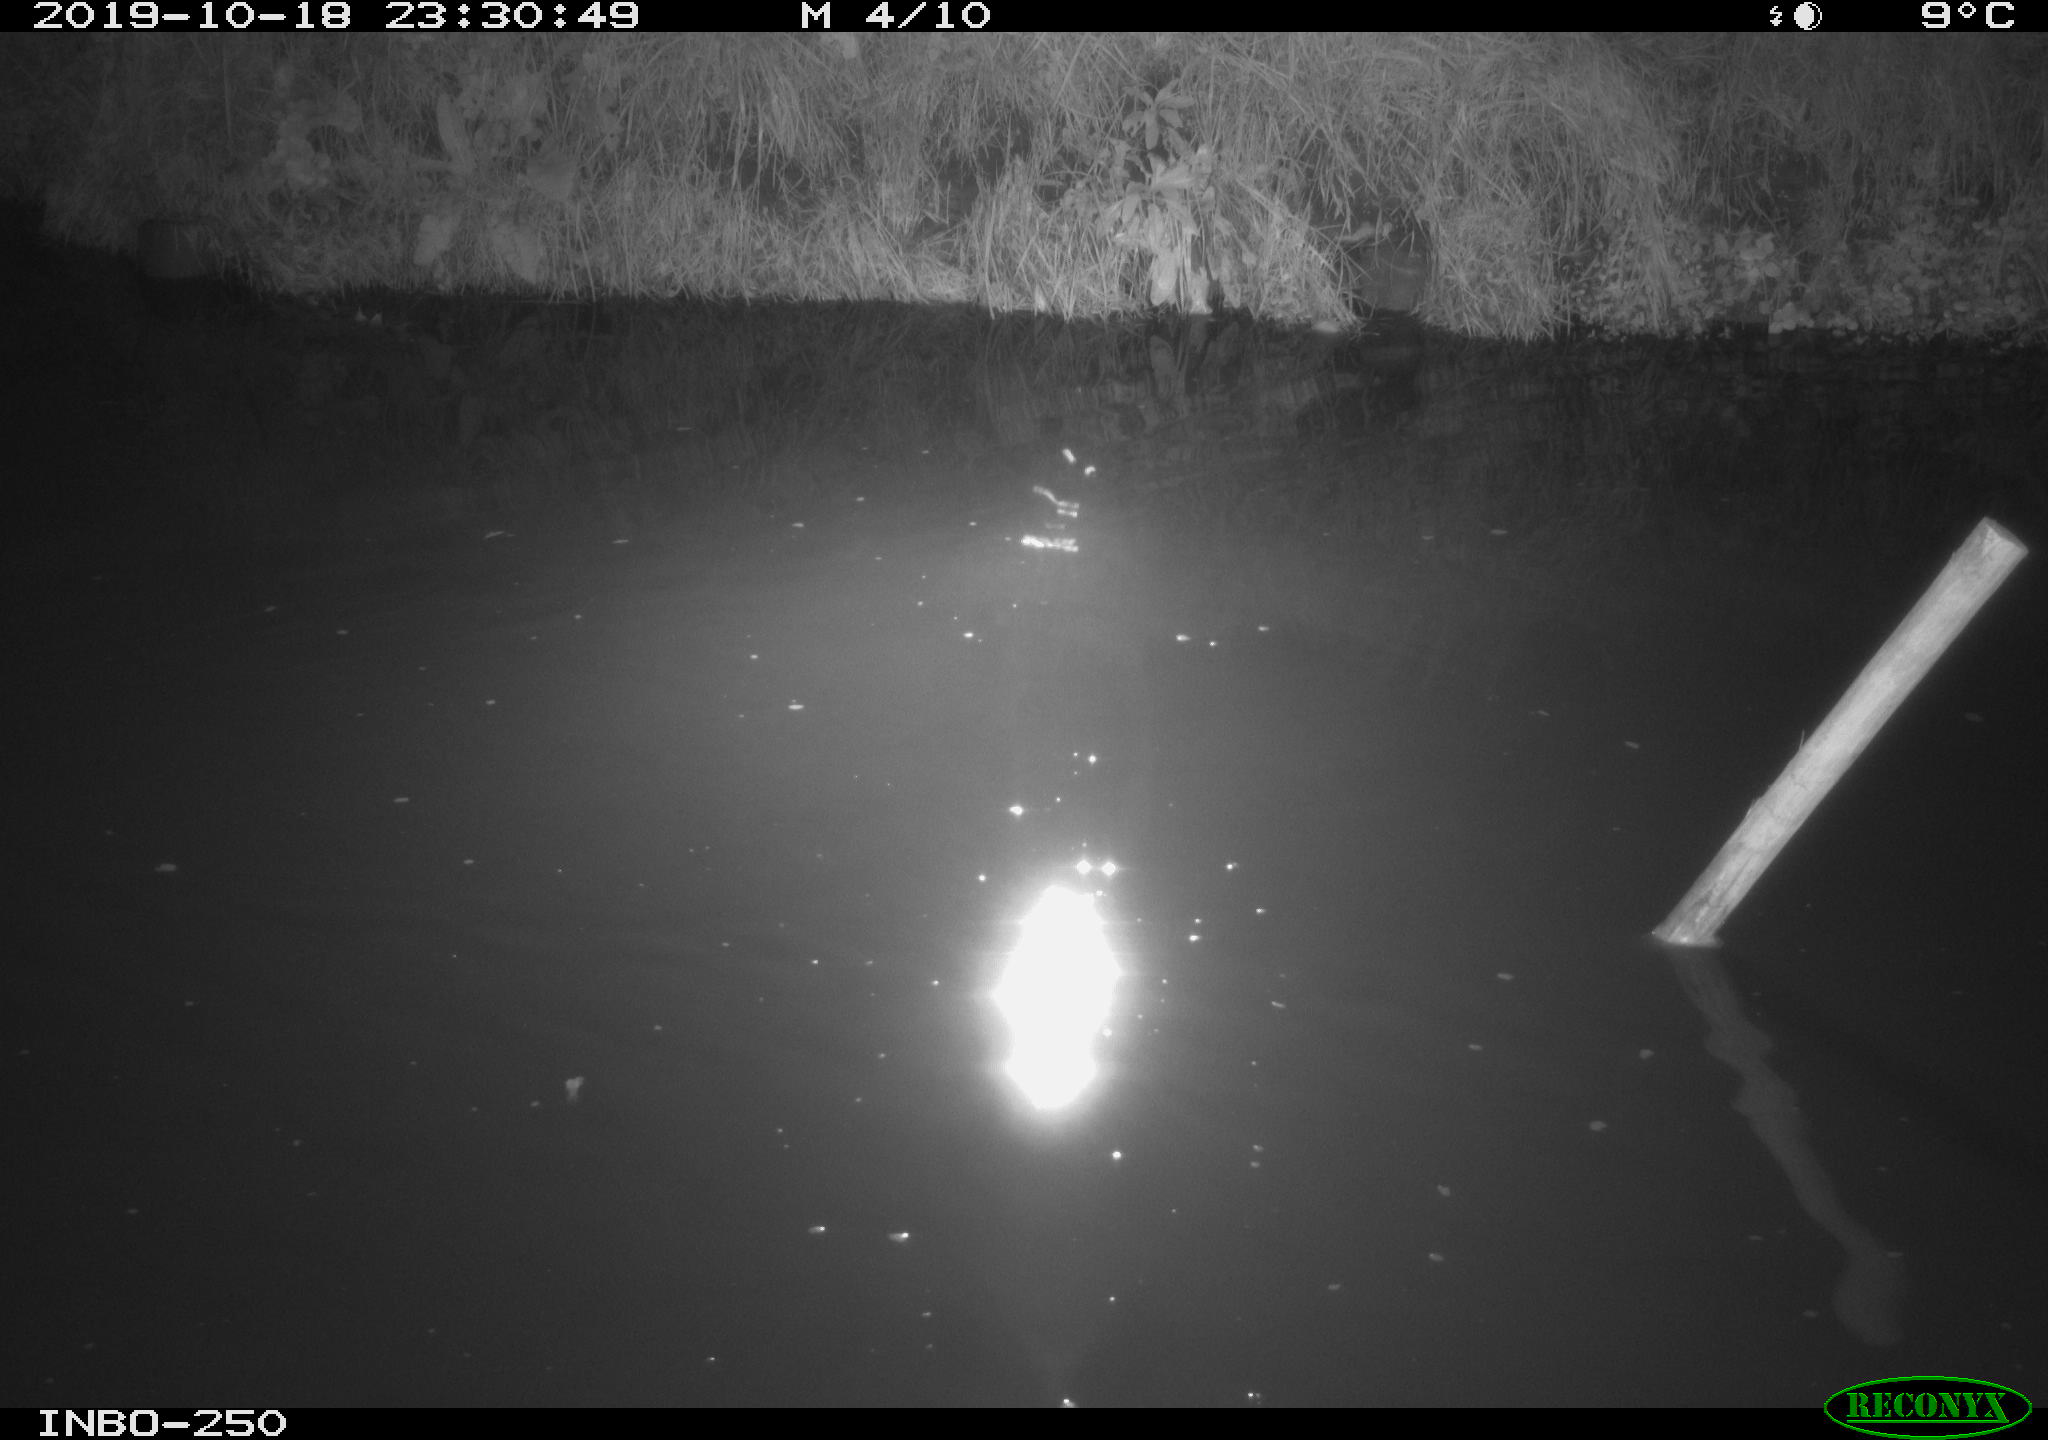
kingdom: Animalia
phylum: Chordata
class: Aves
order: Anseriformes
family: Anatidae
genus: Anas
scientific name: Anas platyrhynchos
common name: Mallard
